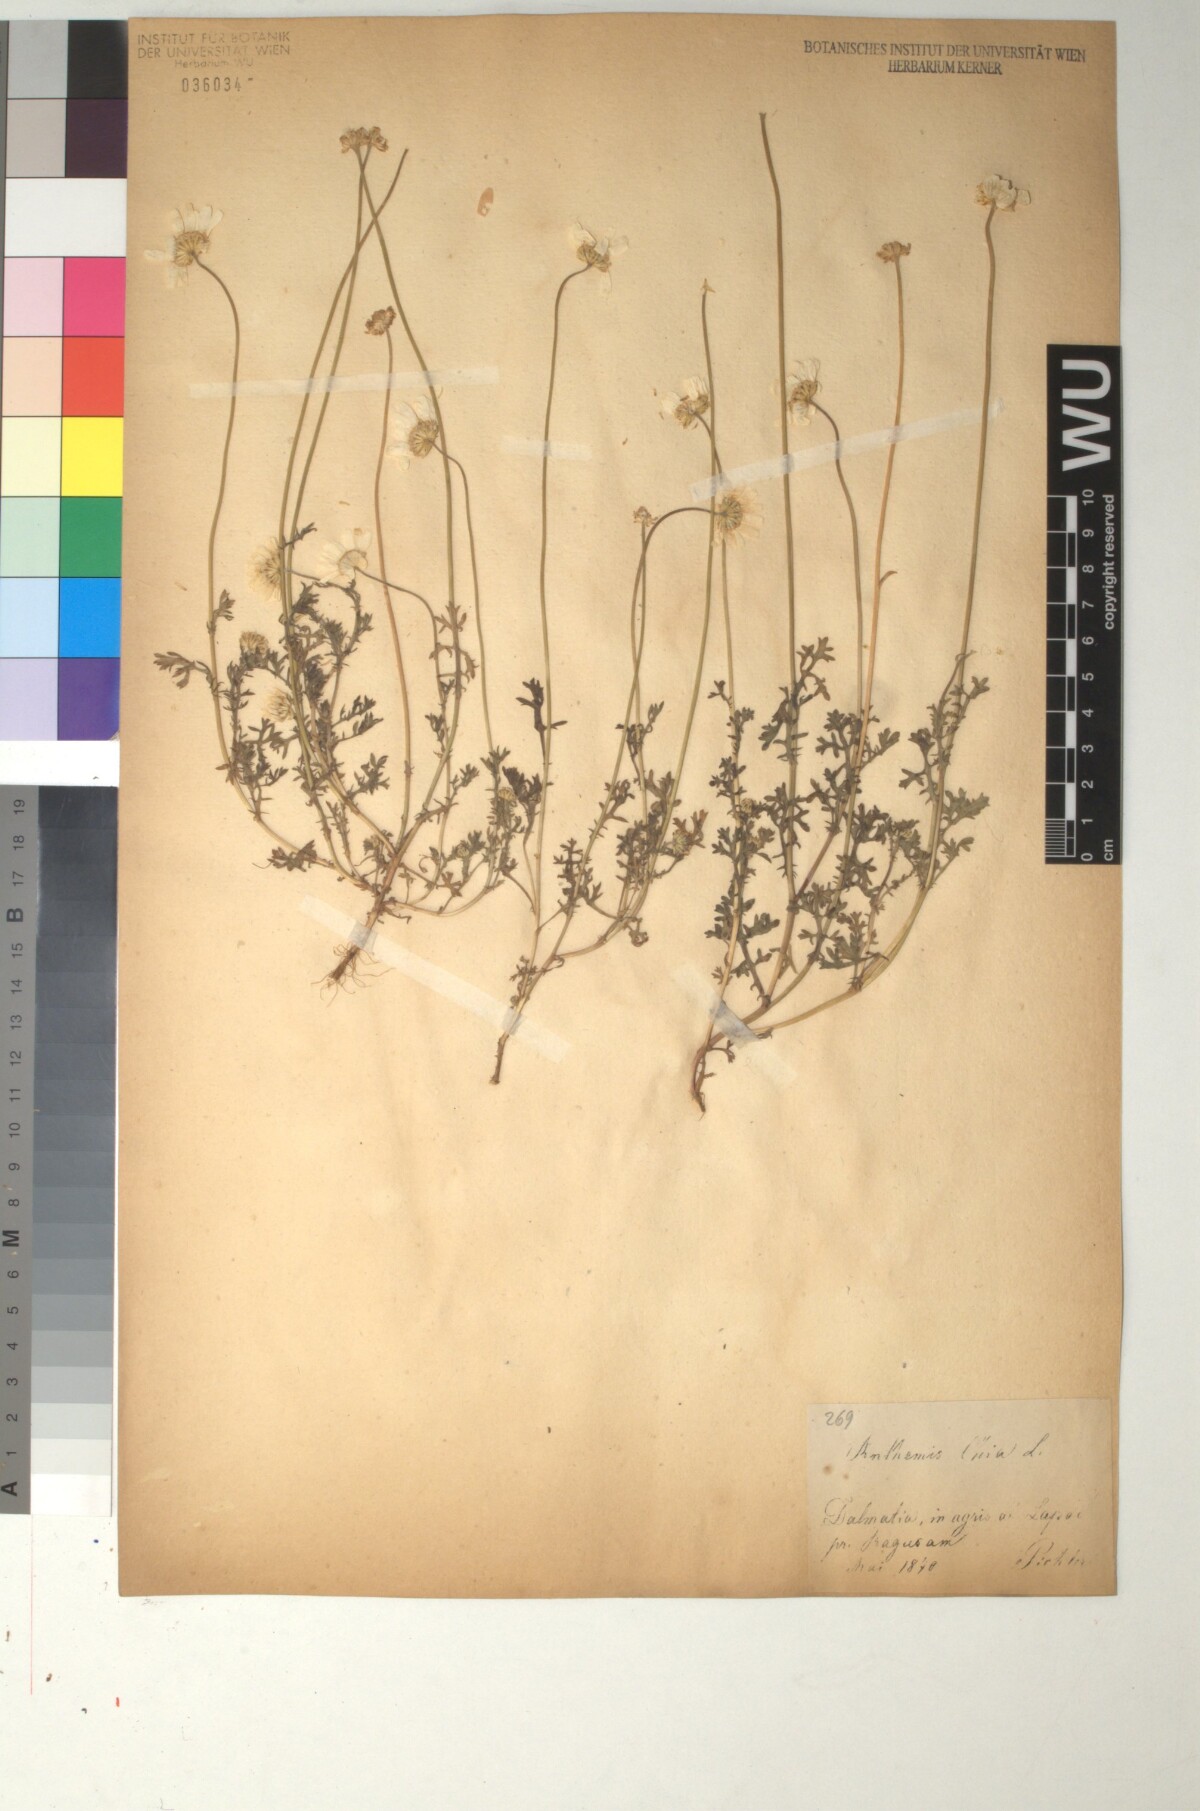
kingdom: Plantae
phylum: Tracheophyta
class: Magnoliopsida
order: Asterales
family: Asteraceae
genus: Anthemis
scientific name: Anthemis chia
